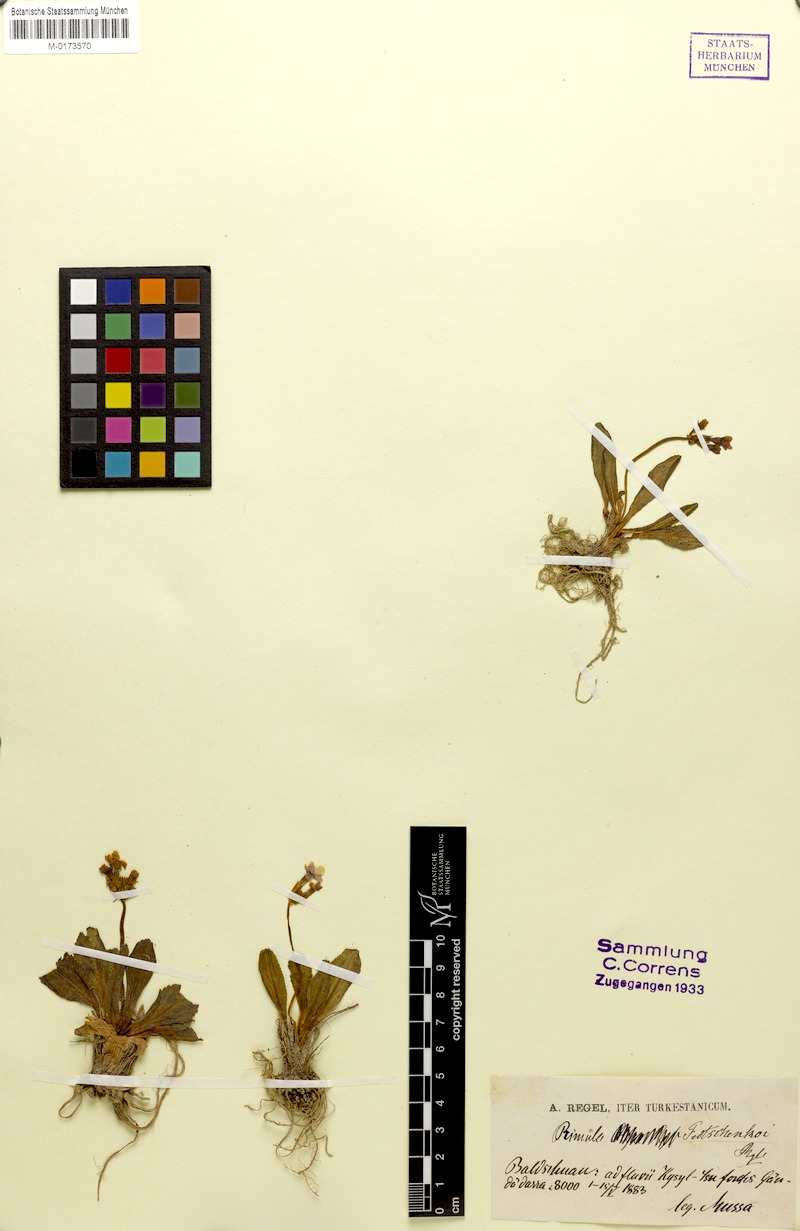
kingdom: Plantae
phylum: Tracheophyta
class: Magnoliopsida
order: Ericales
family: Primulaceae
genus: Primula
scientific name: Primula fedtschenkoi
